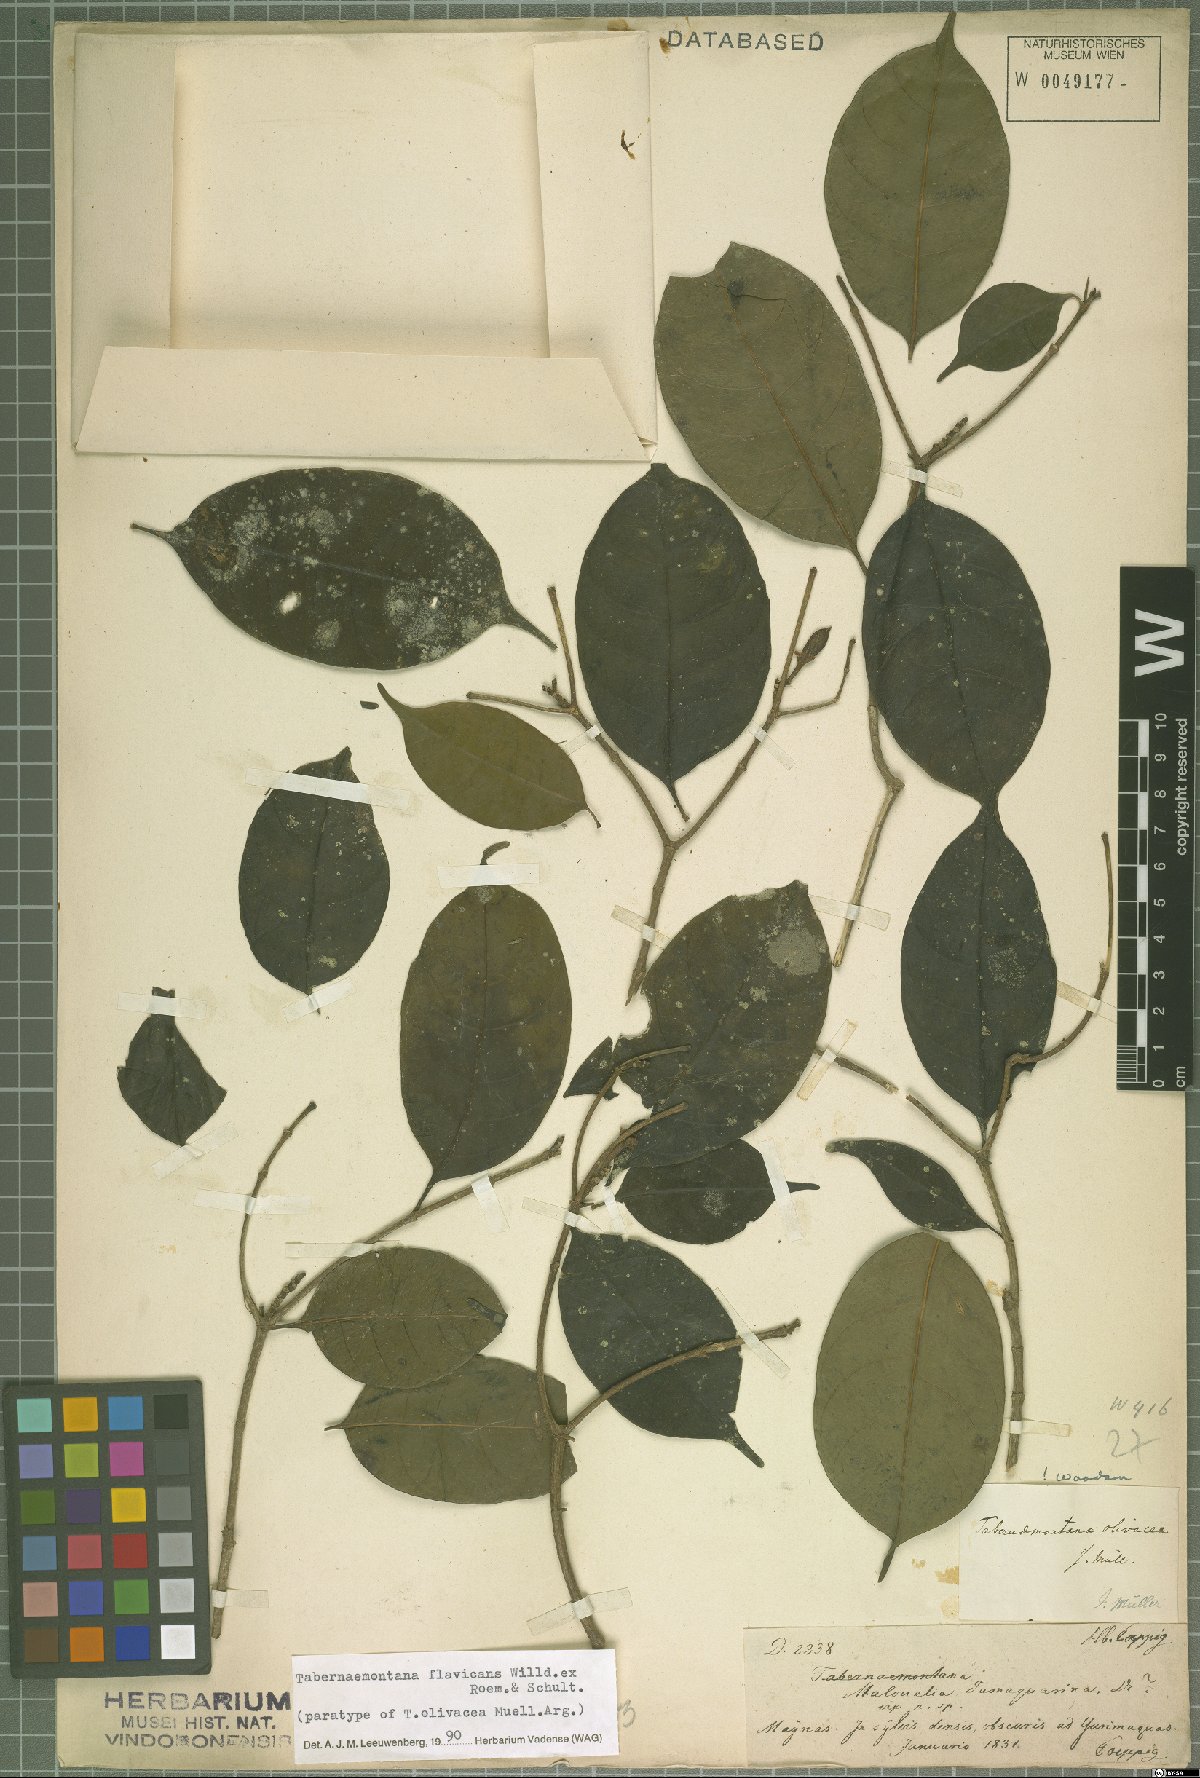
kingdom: Plantae
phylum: Tracheophyta
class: Magnoliopsida
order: Gentianales
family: Apocynaceae
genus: Tabernaemontana
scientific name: Tabernaemontana flavicans
